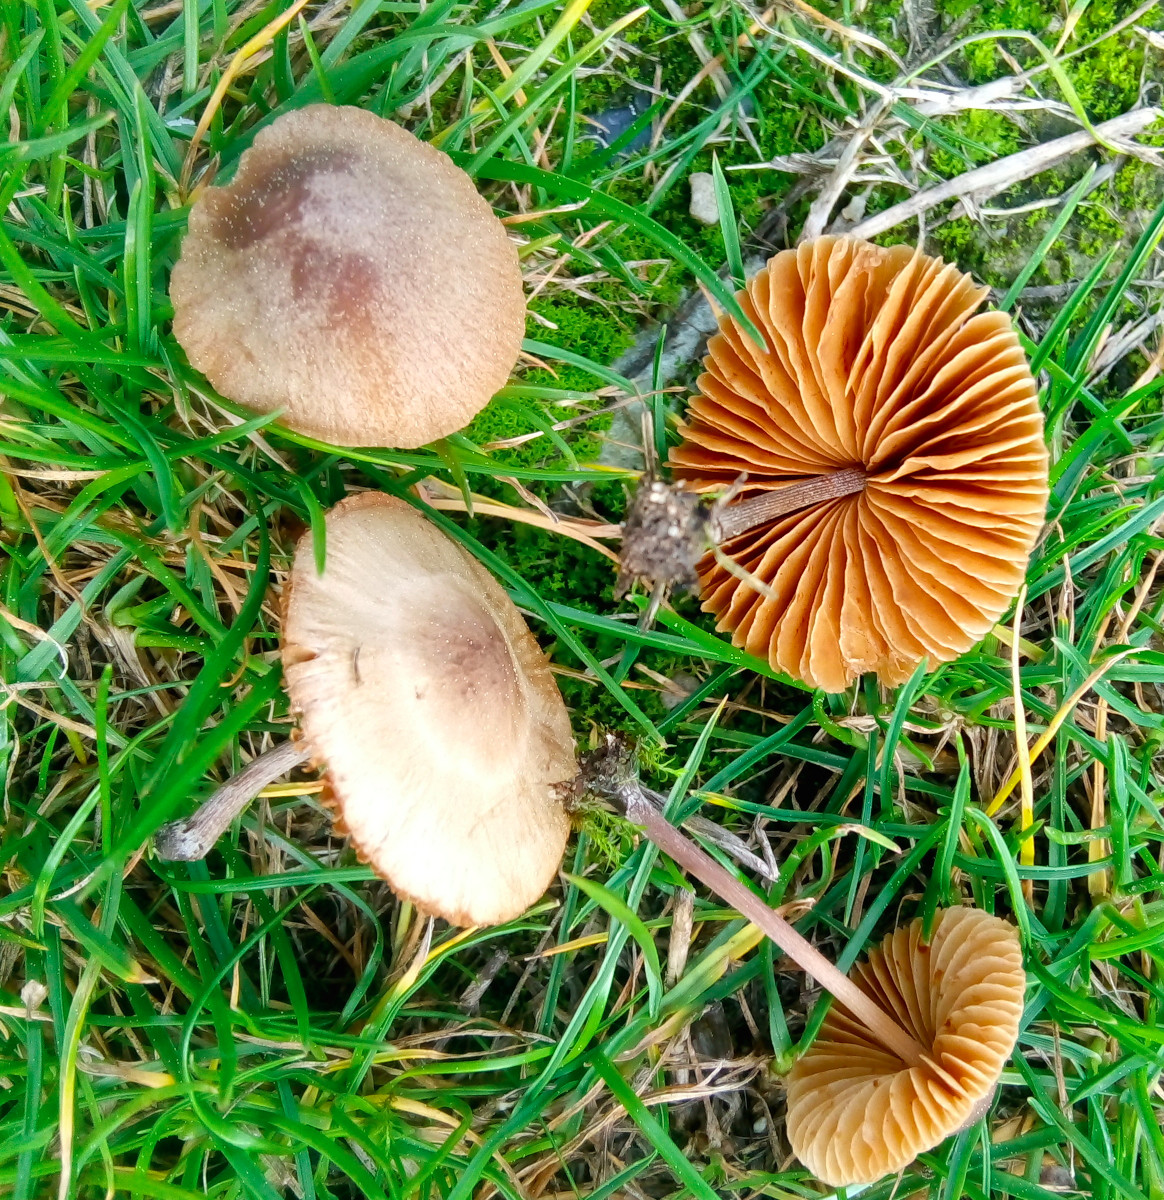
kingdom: Fungi
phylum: Basidiomycota
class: Agaricomycetes
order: Agaricales
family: Bolbitiaceae
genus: Conocybe
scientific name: Conocybe
